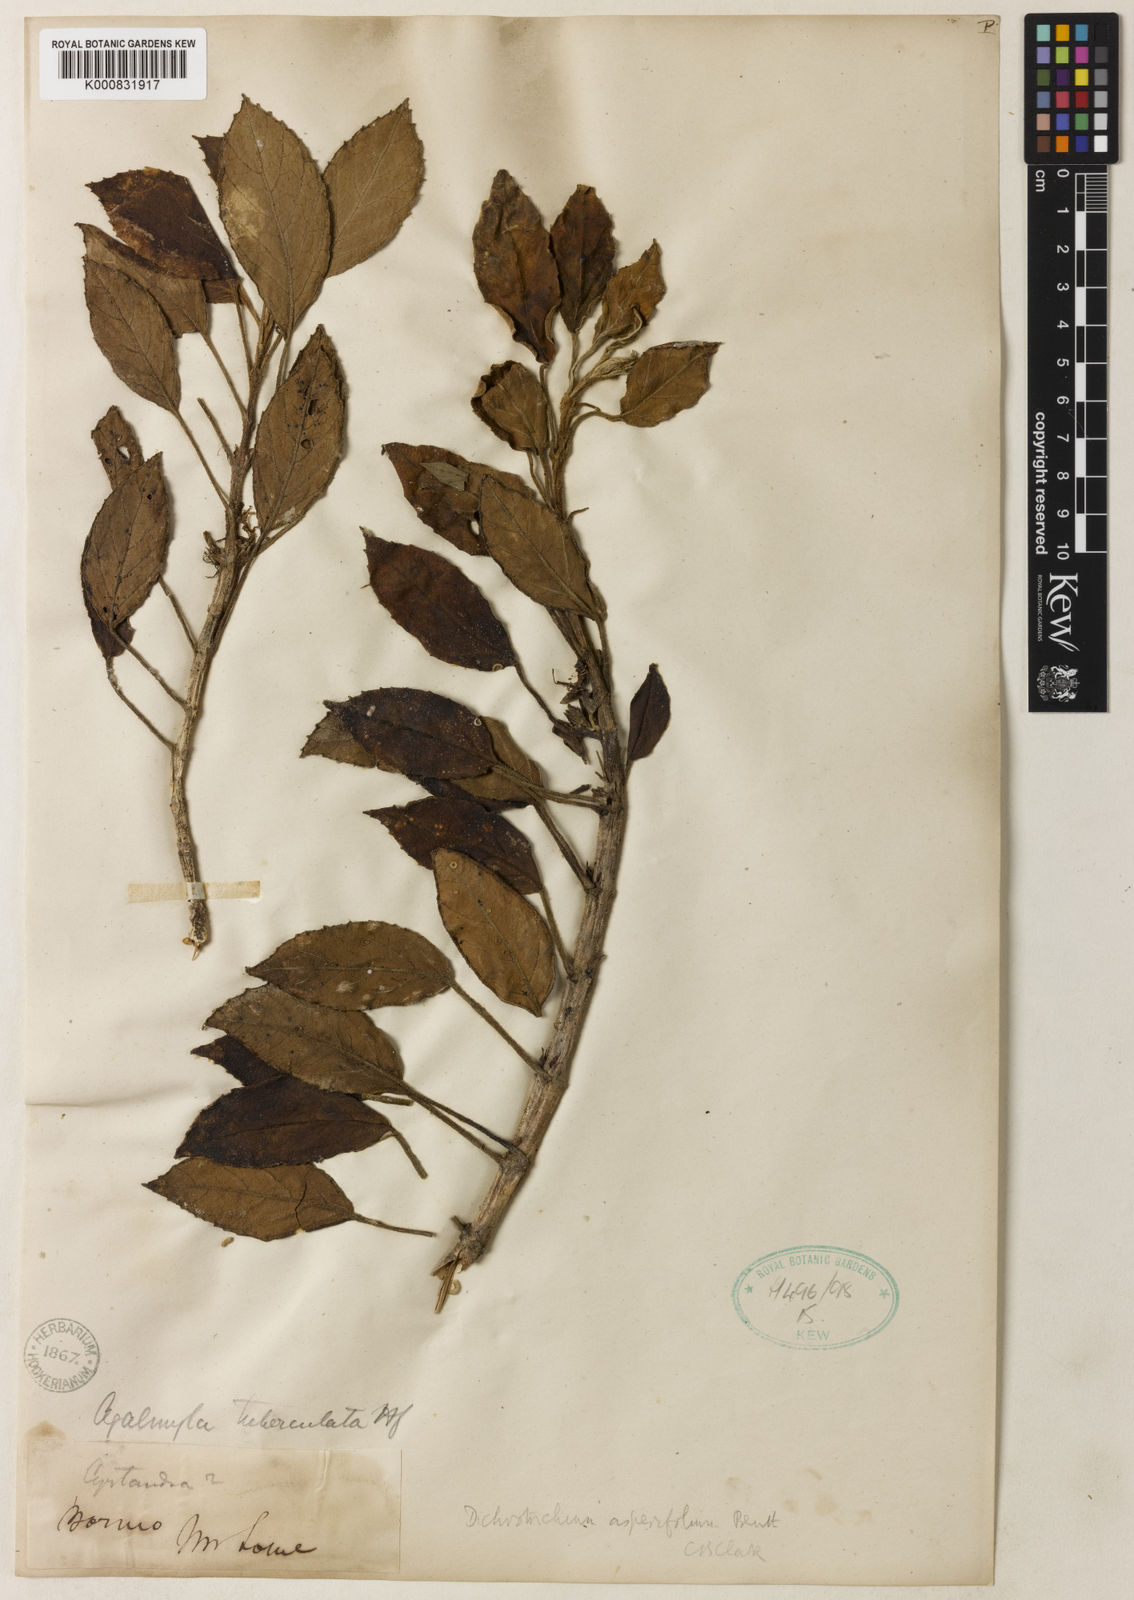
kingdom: Plantae
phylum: Tracheophyta
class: Magnoliopsida
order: Lamiales
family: Gesneriaceae
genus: Agalmyla
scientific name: Agalmyla tuberculata
